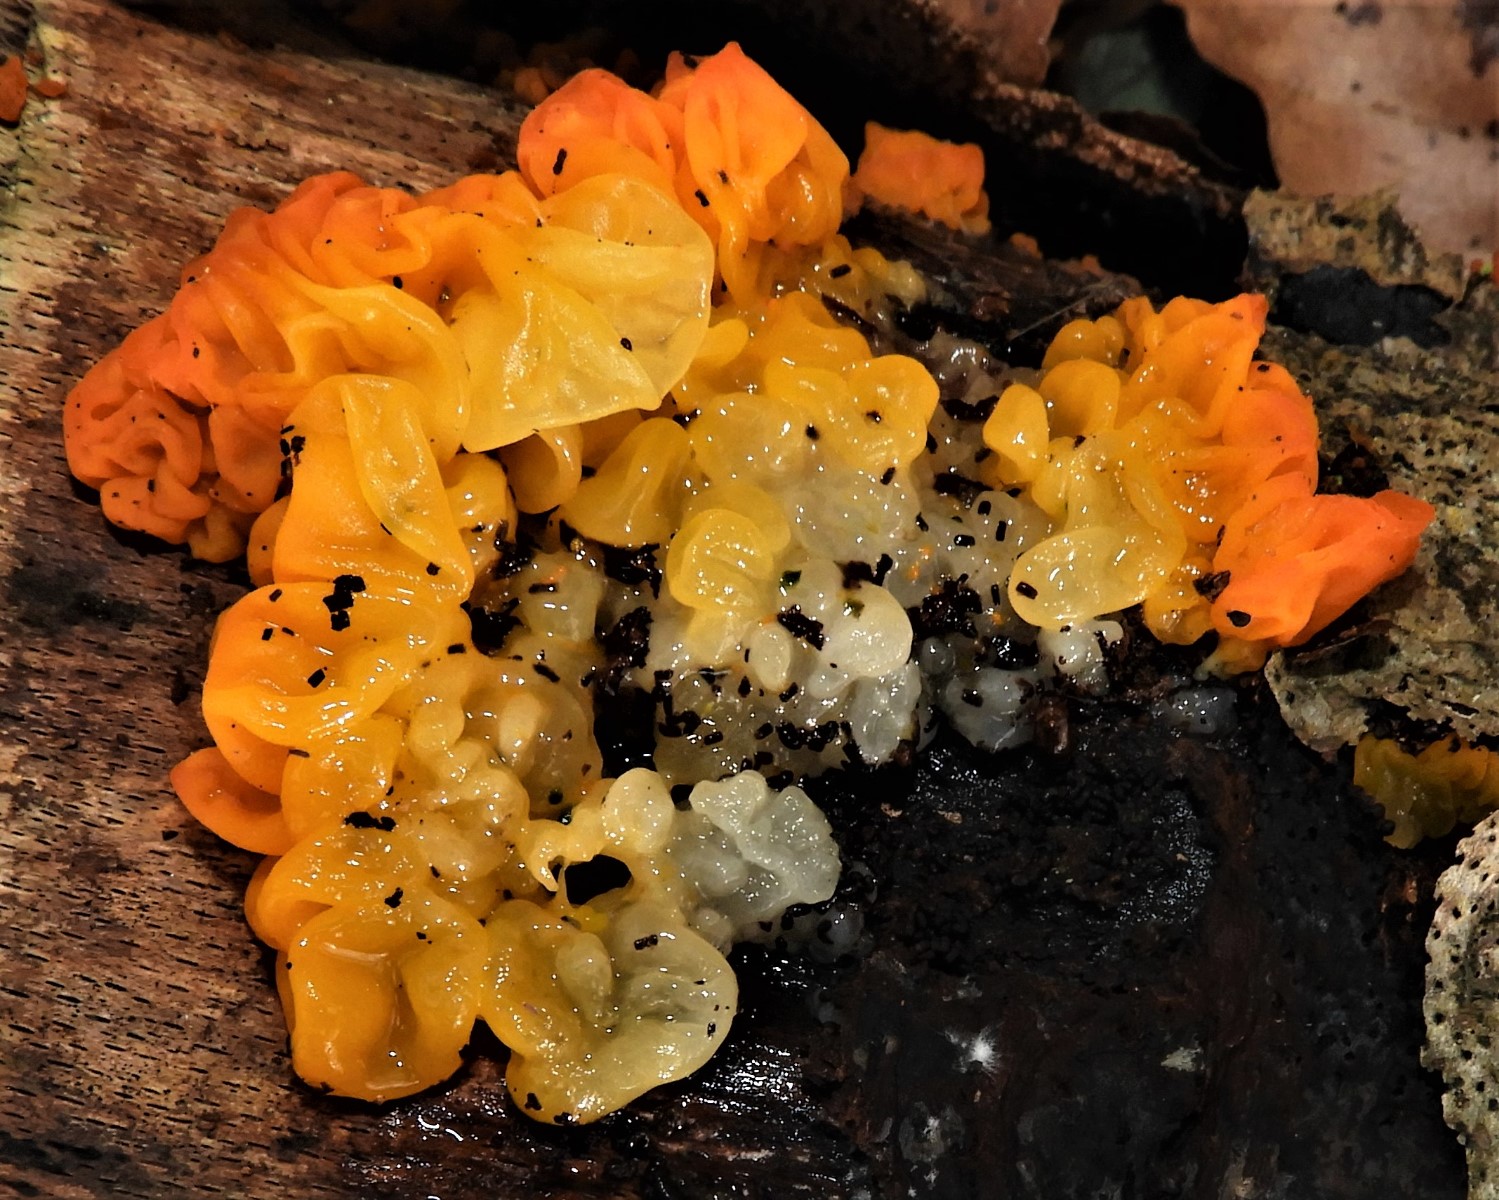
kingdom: Fungi
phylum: Basidiomycota
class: Tremellomycetes
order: Tremellales
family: Tremellaceae
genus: Tremella
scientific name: Tremella mesenterica
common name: gul bævresvamp
